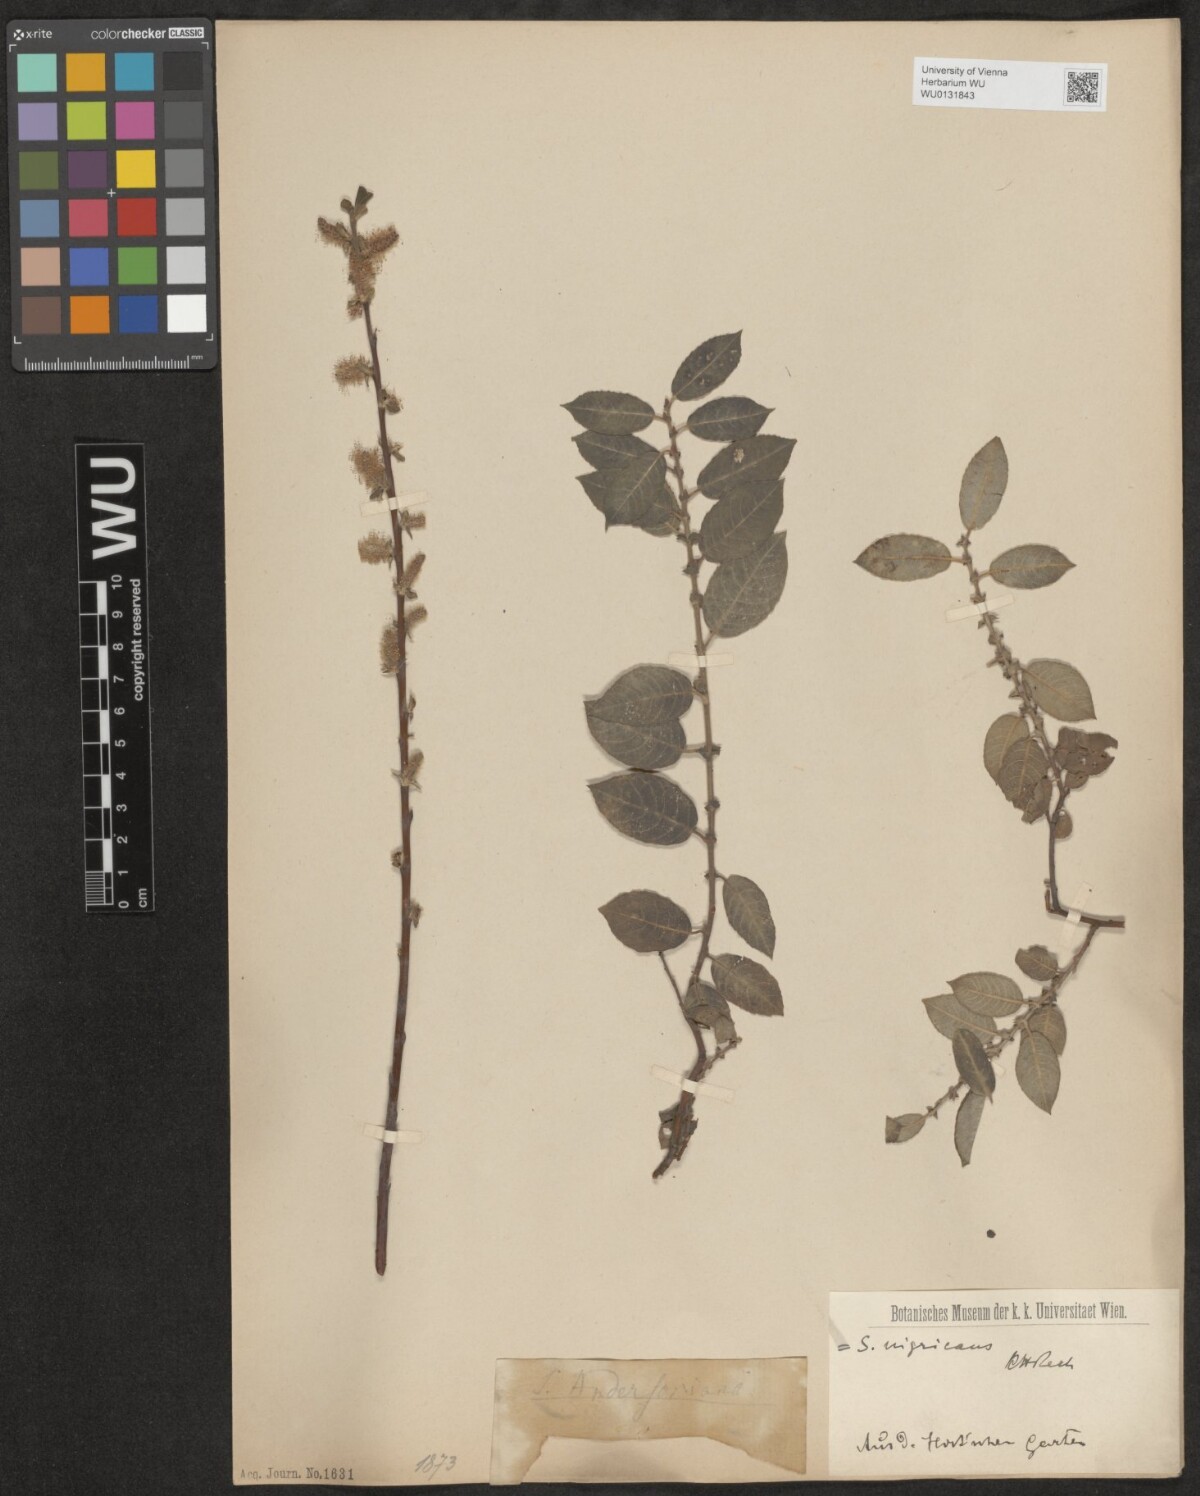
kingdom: Plantae
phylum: Tracheophyta
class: Magnoliopsida
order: Malpighiales
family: Salicaceae
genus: Salix
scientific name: Salix myrsinifolia
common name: Dark-leaved willow
